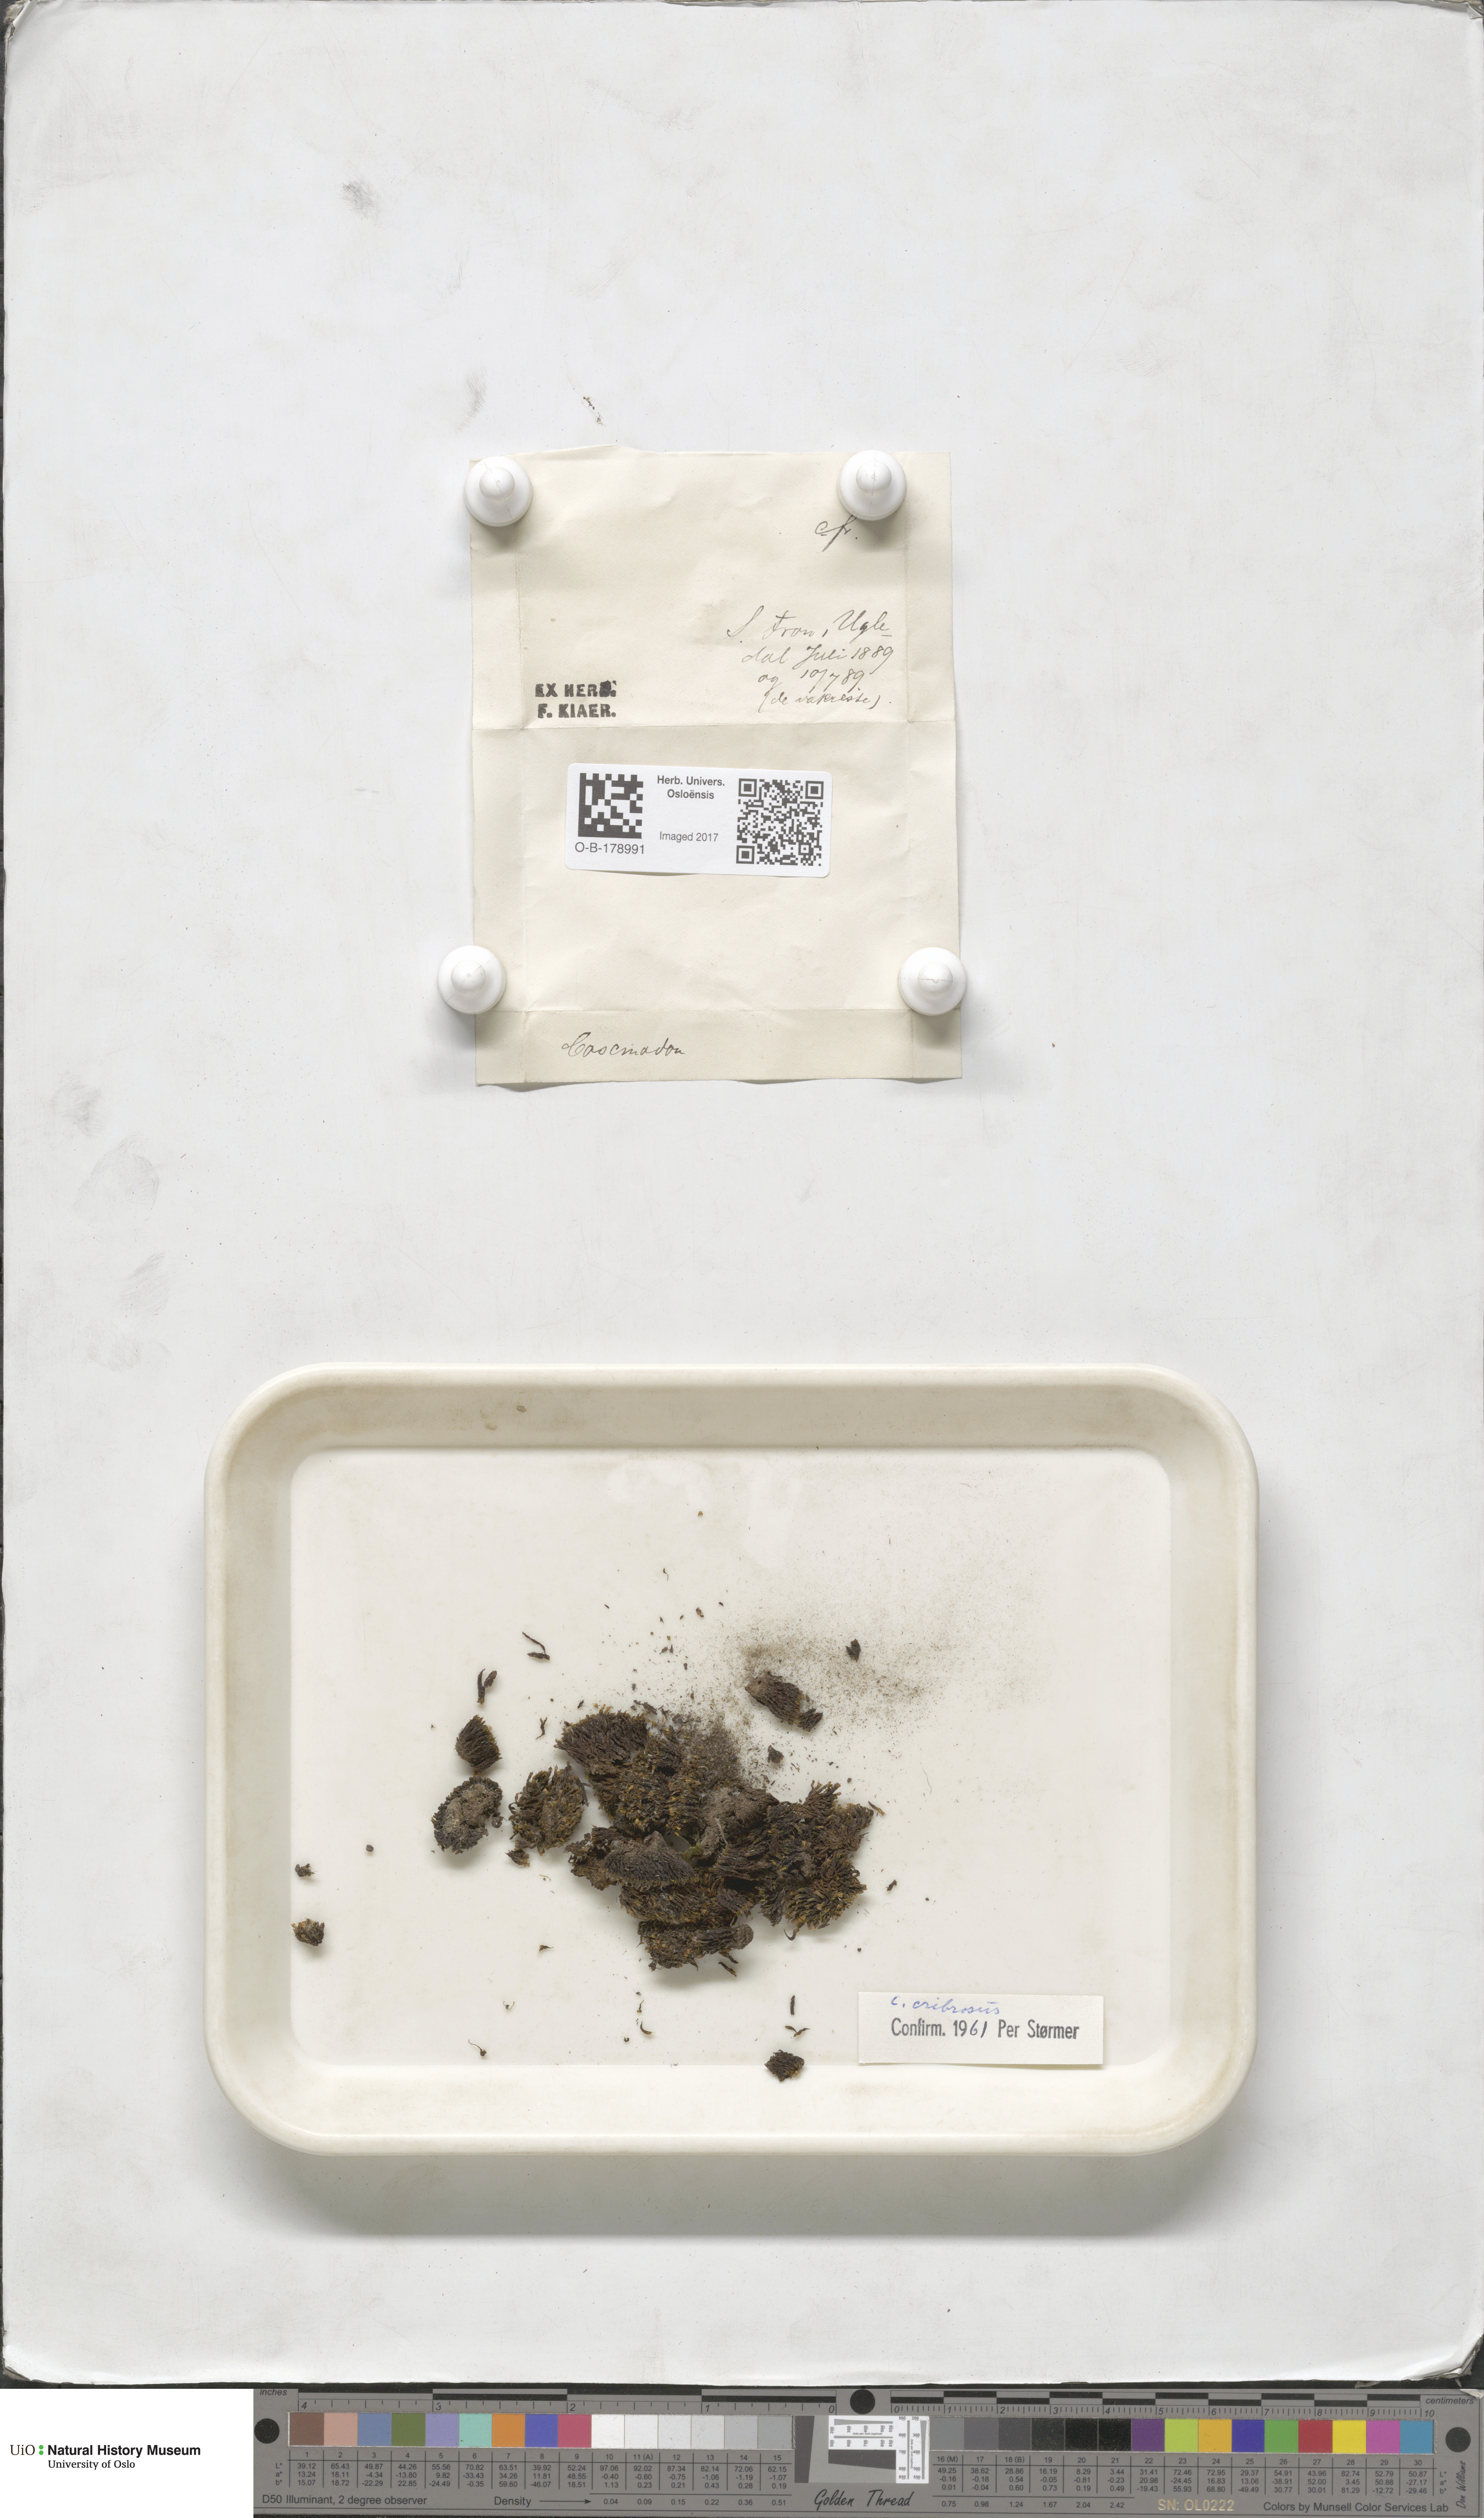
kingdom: Plantae
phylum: Bryophyta
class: Bryopsida
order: Bartramiales
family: Bartramiaceae
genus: Conostomum
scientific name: Conostomum tetragonum
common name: Helmet moss
